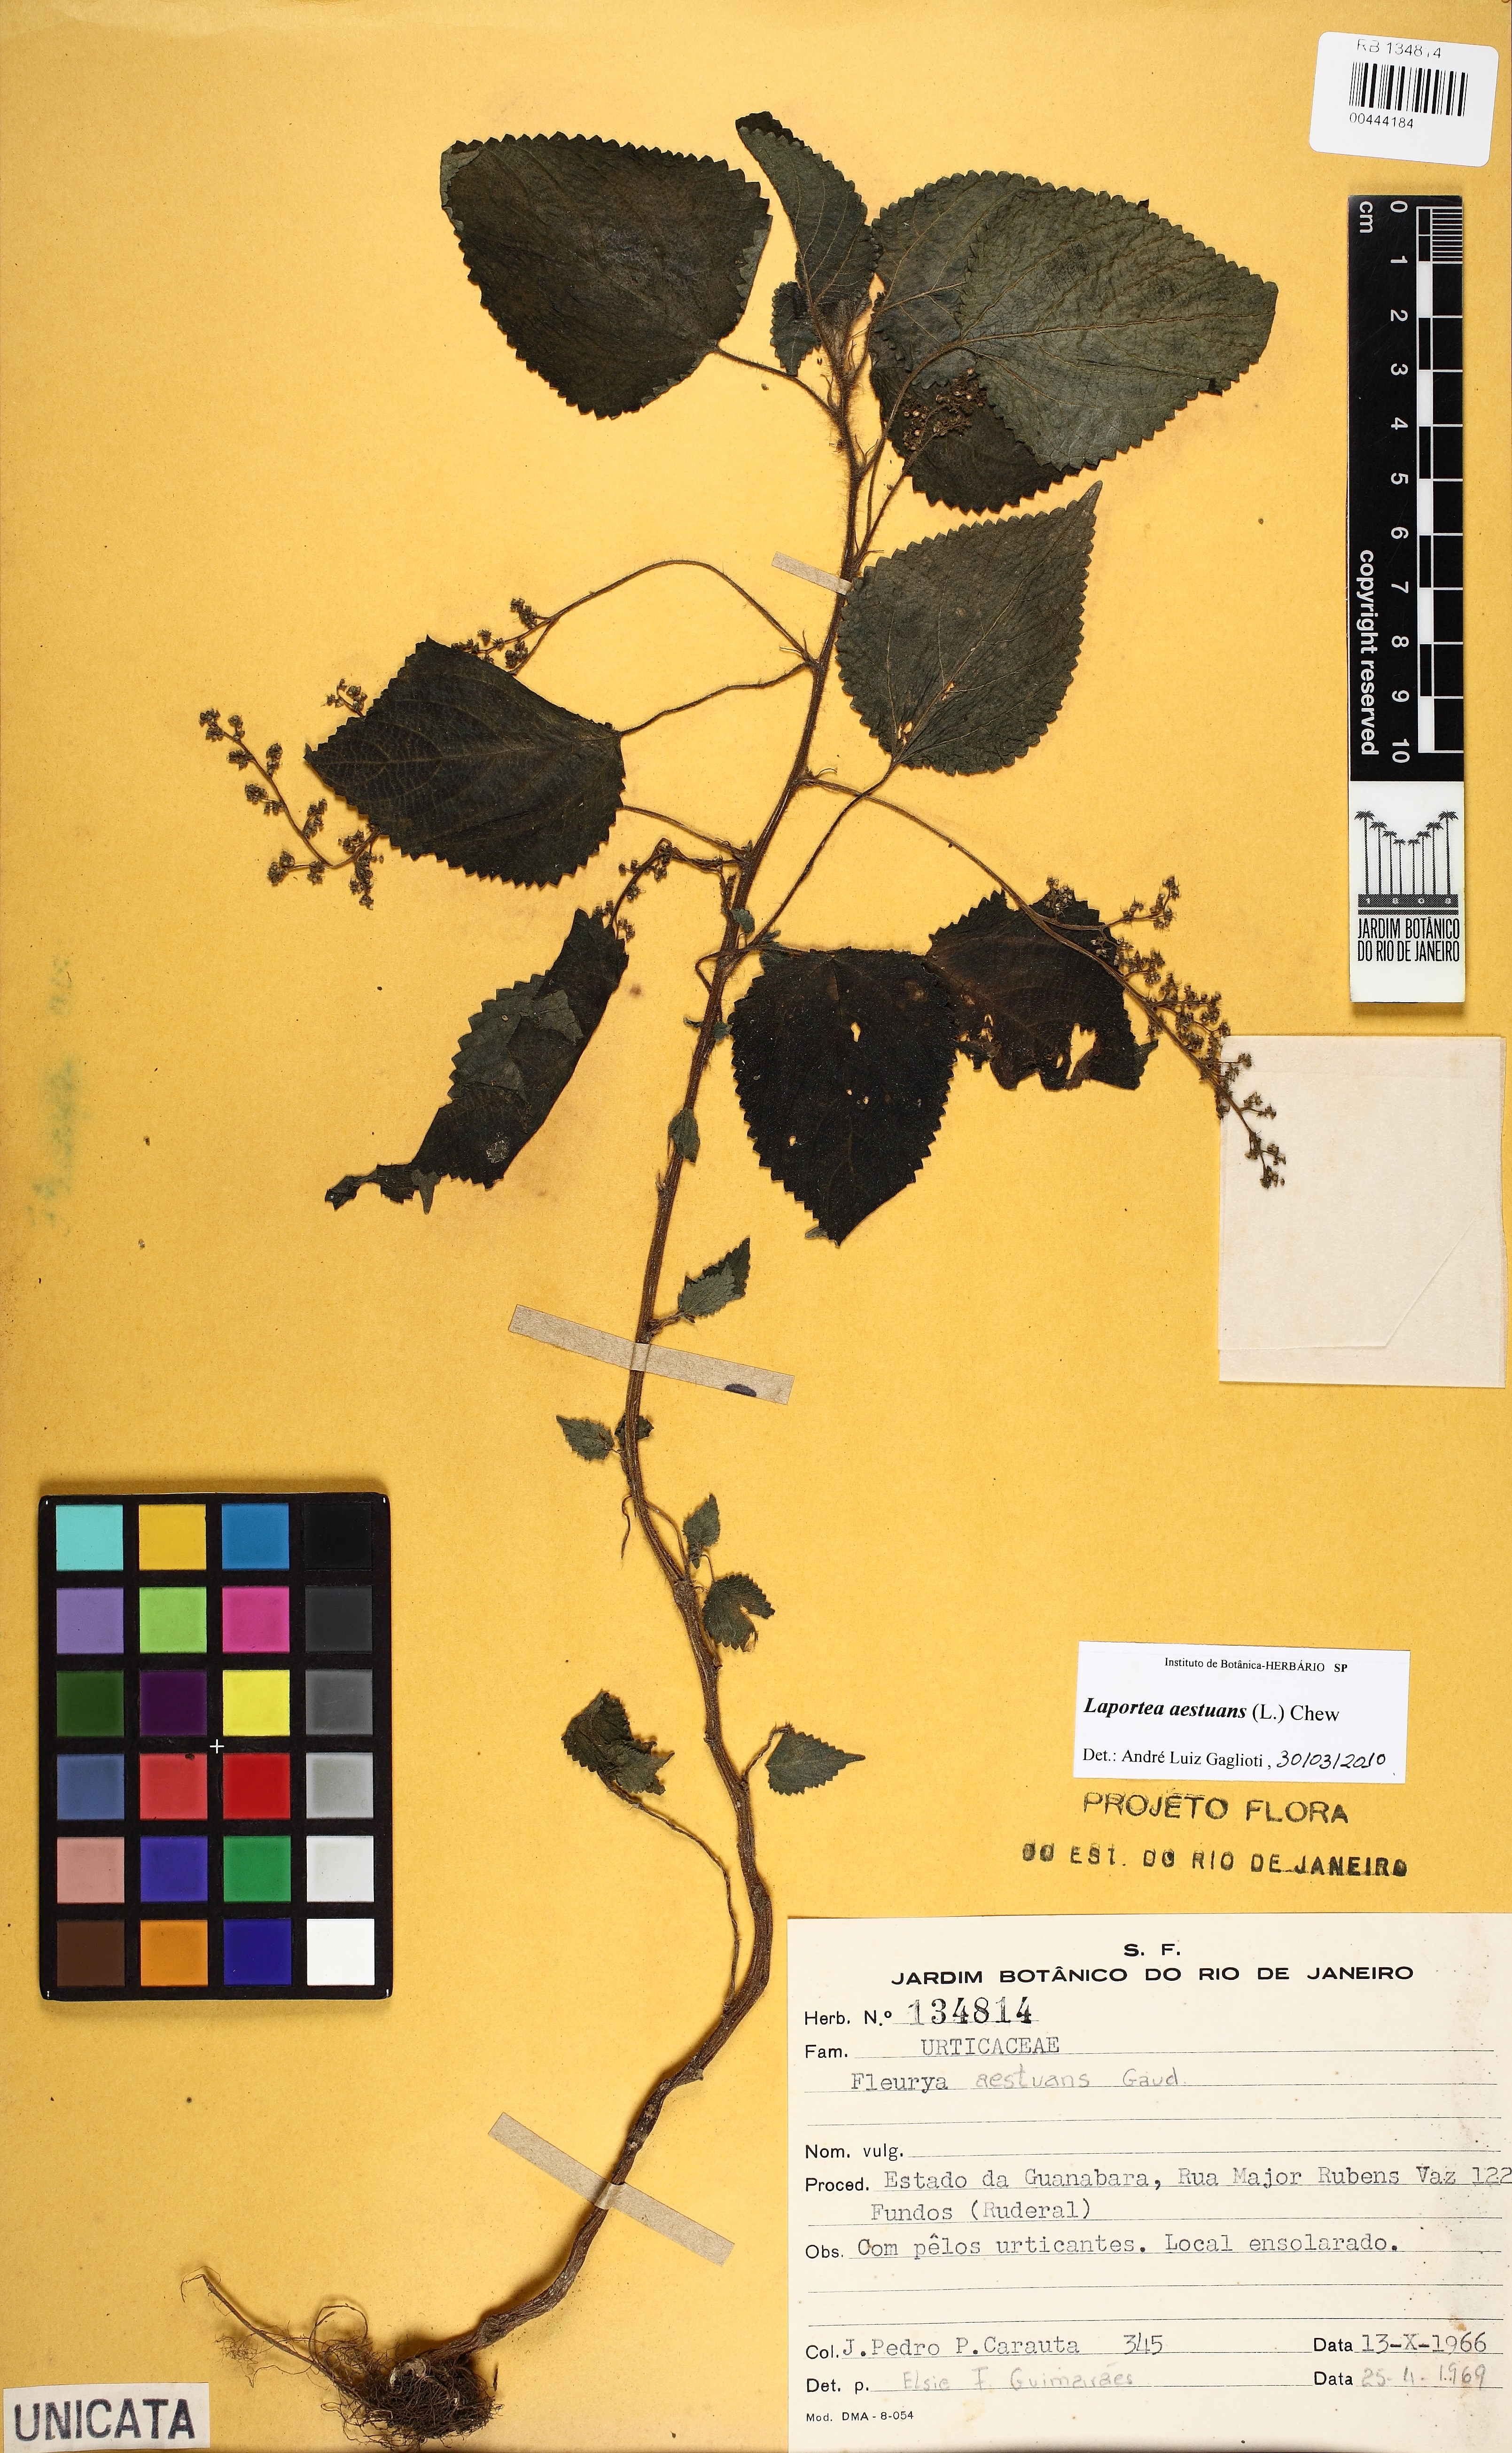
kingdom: Plantae
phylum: Tracheophyta
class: Magnoliopsida
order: Rosales
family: Urticaceae
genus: Laportea
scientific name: Laportea aestuans
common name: West indian woodnettle
